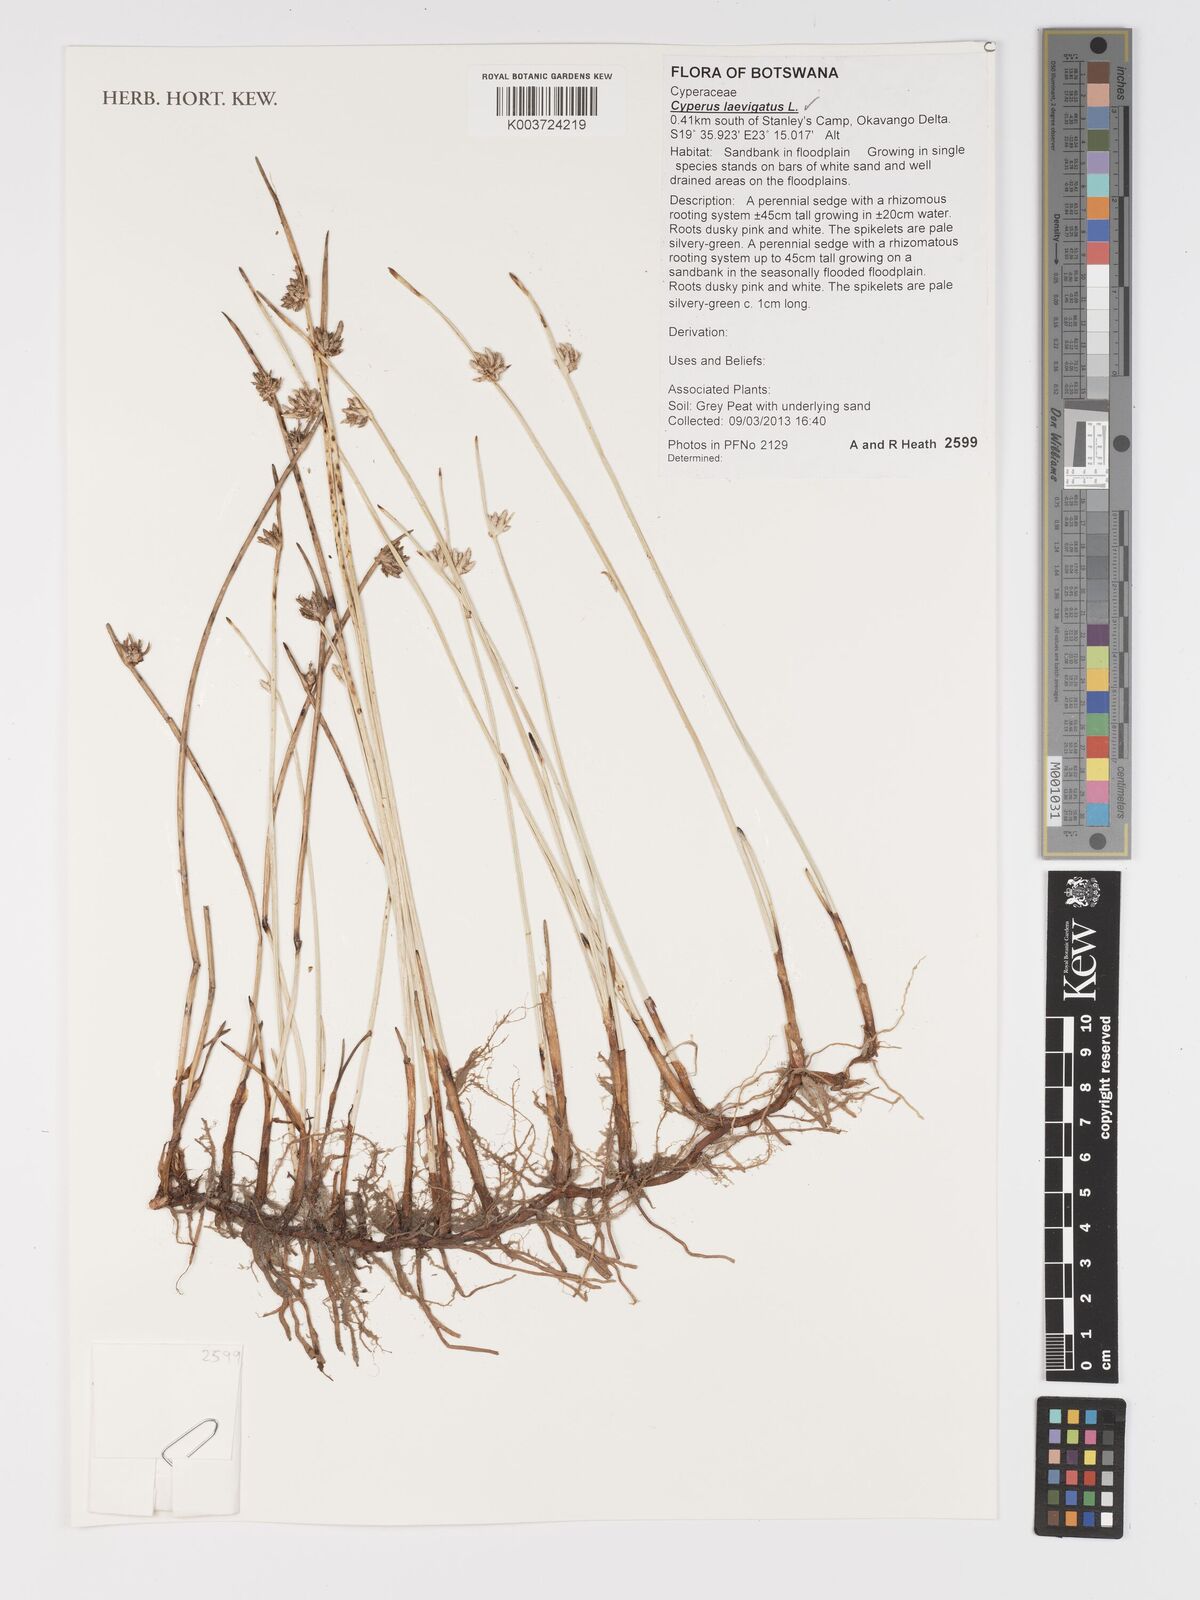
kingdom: Plantae
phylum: Tracheophyta
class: Liliopsida
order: Poales
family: Cyperaceae
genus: Cyperus
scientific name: Cyperus laevigatus
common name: Smooth flat sedge
